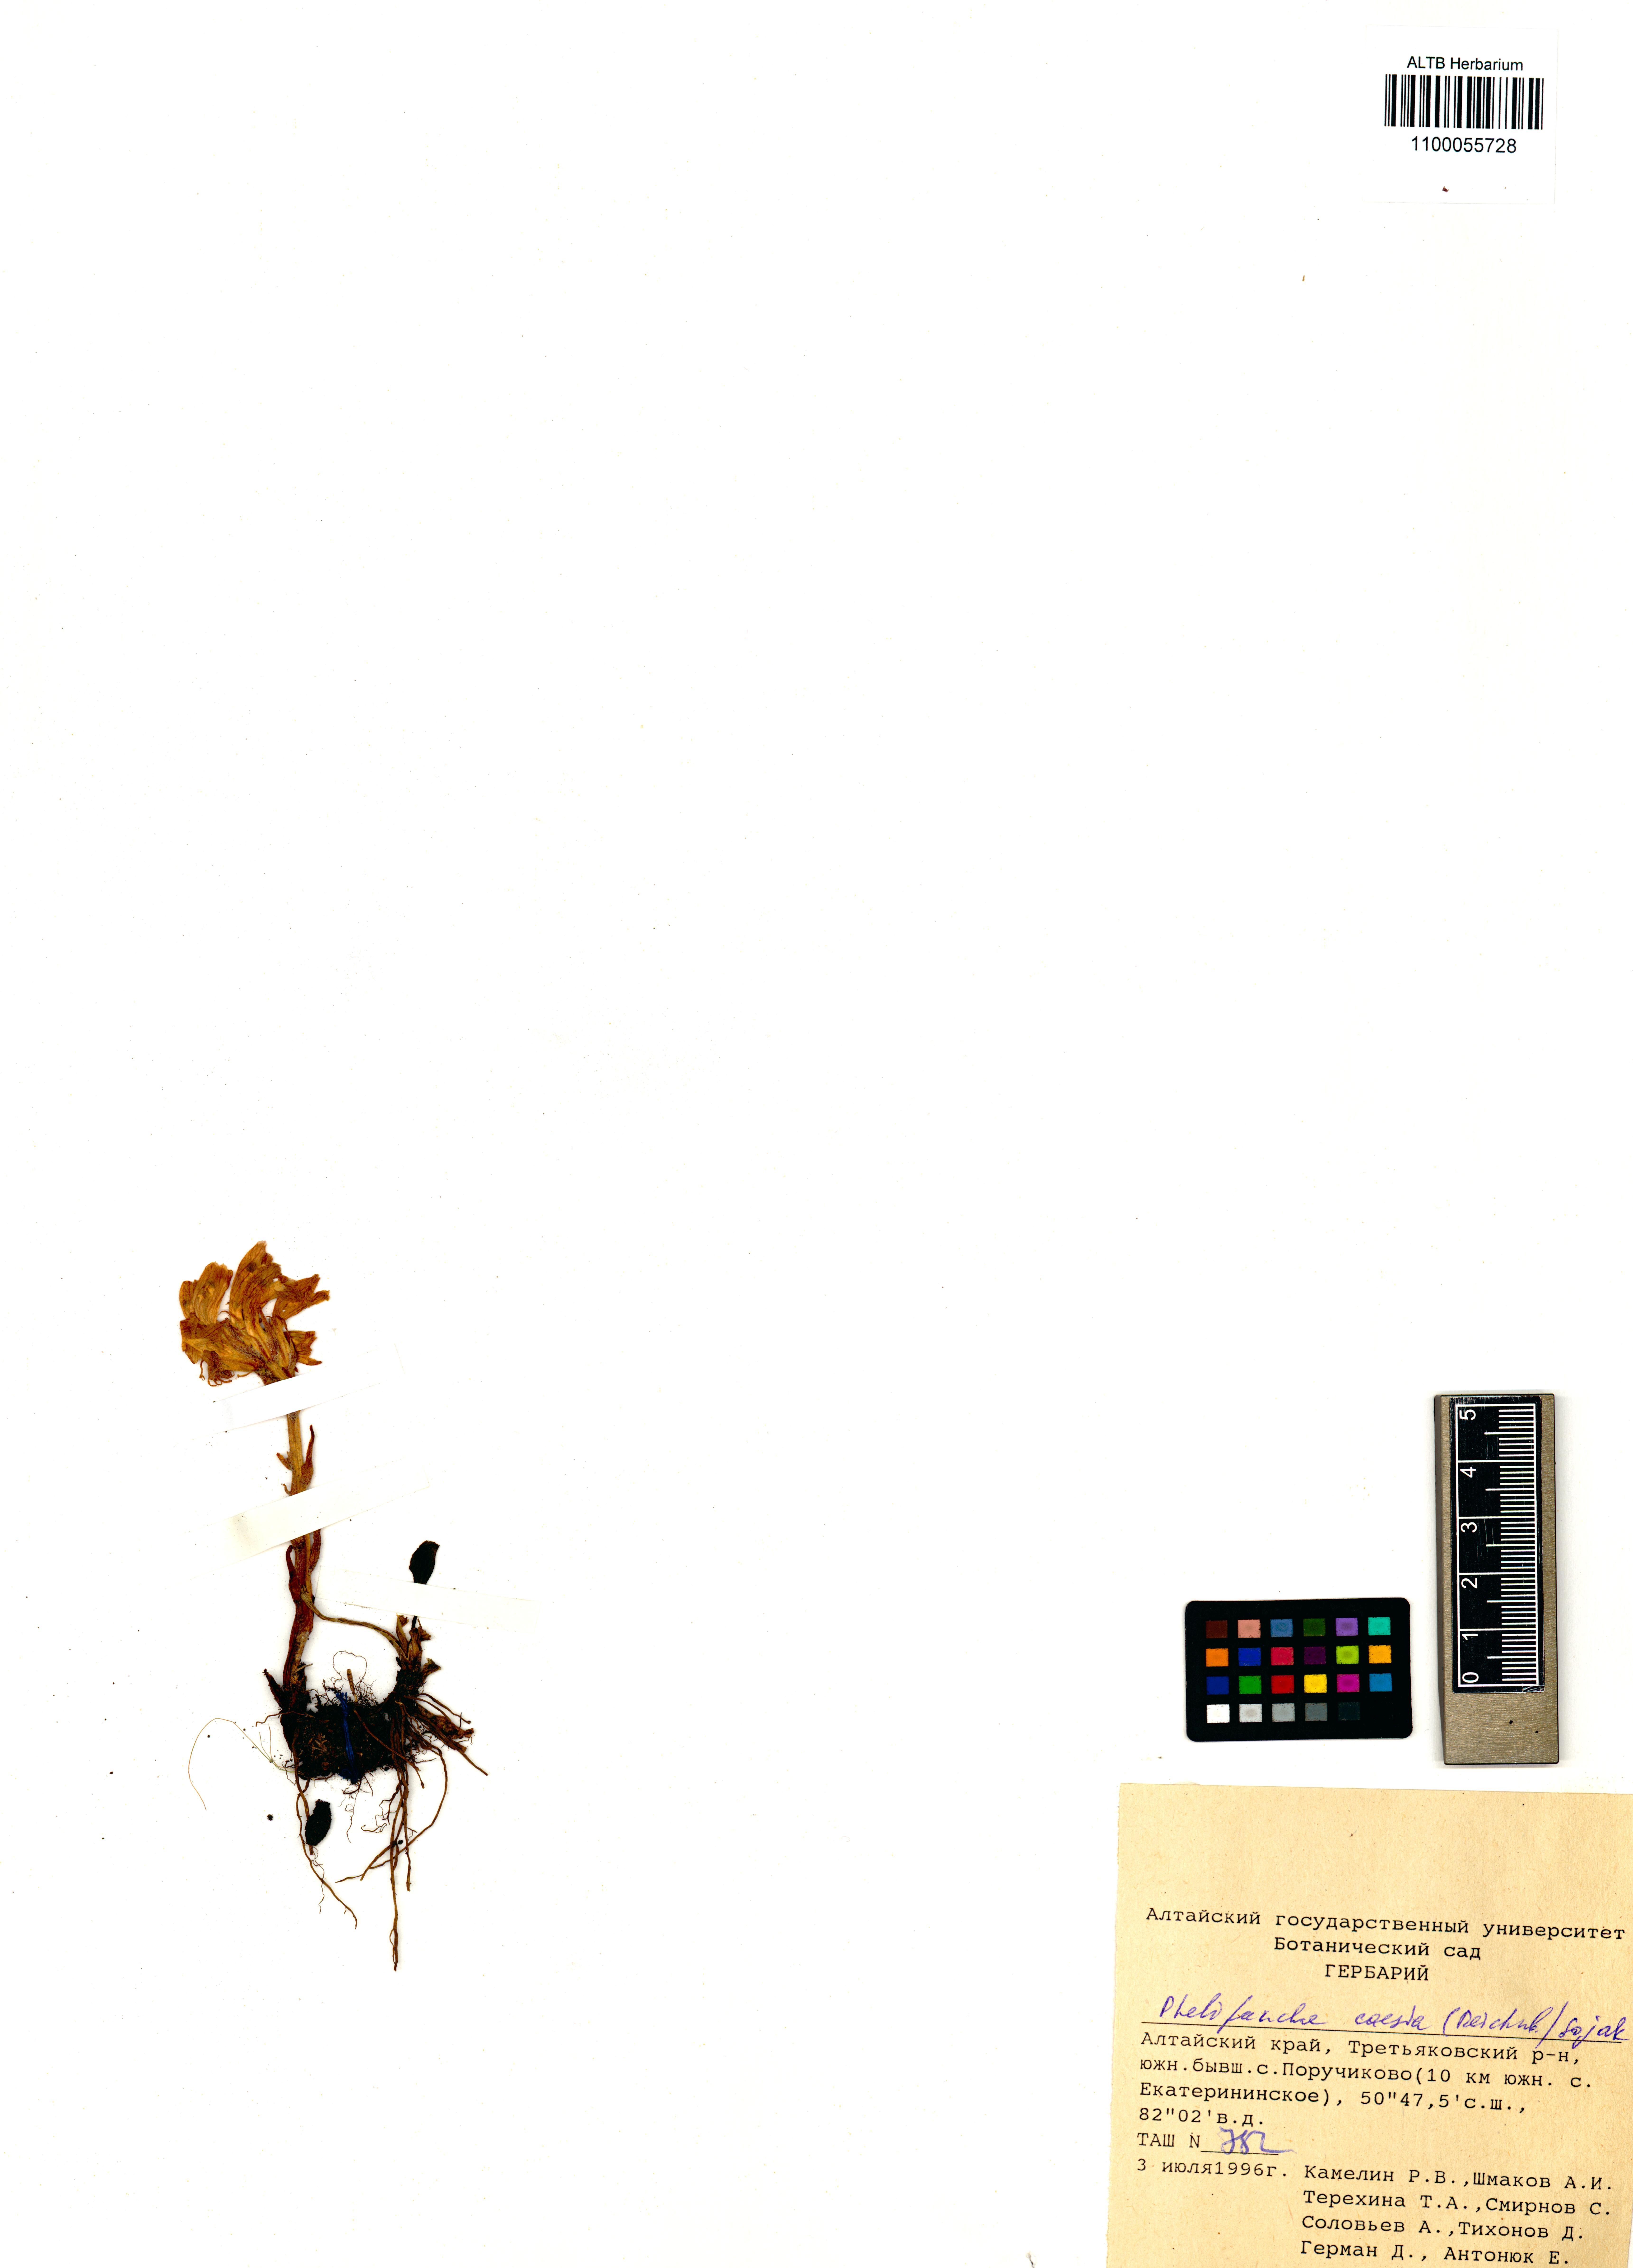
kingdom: Plantae
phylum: Tracheophyta
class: Magnoliopsida
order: Lamiales
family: Orobanchaceae
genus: Phelipanche
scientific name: Phelipanche caesia
